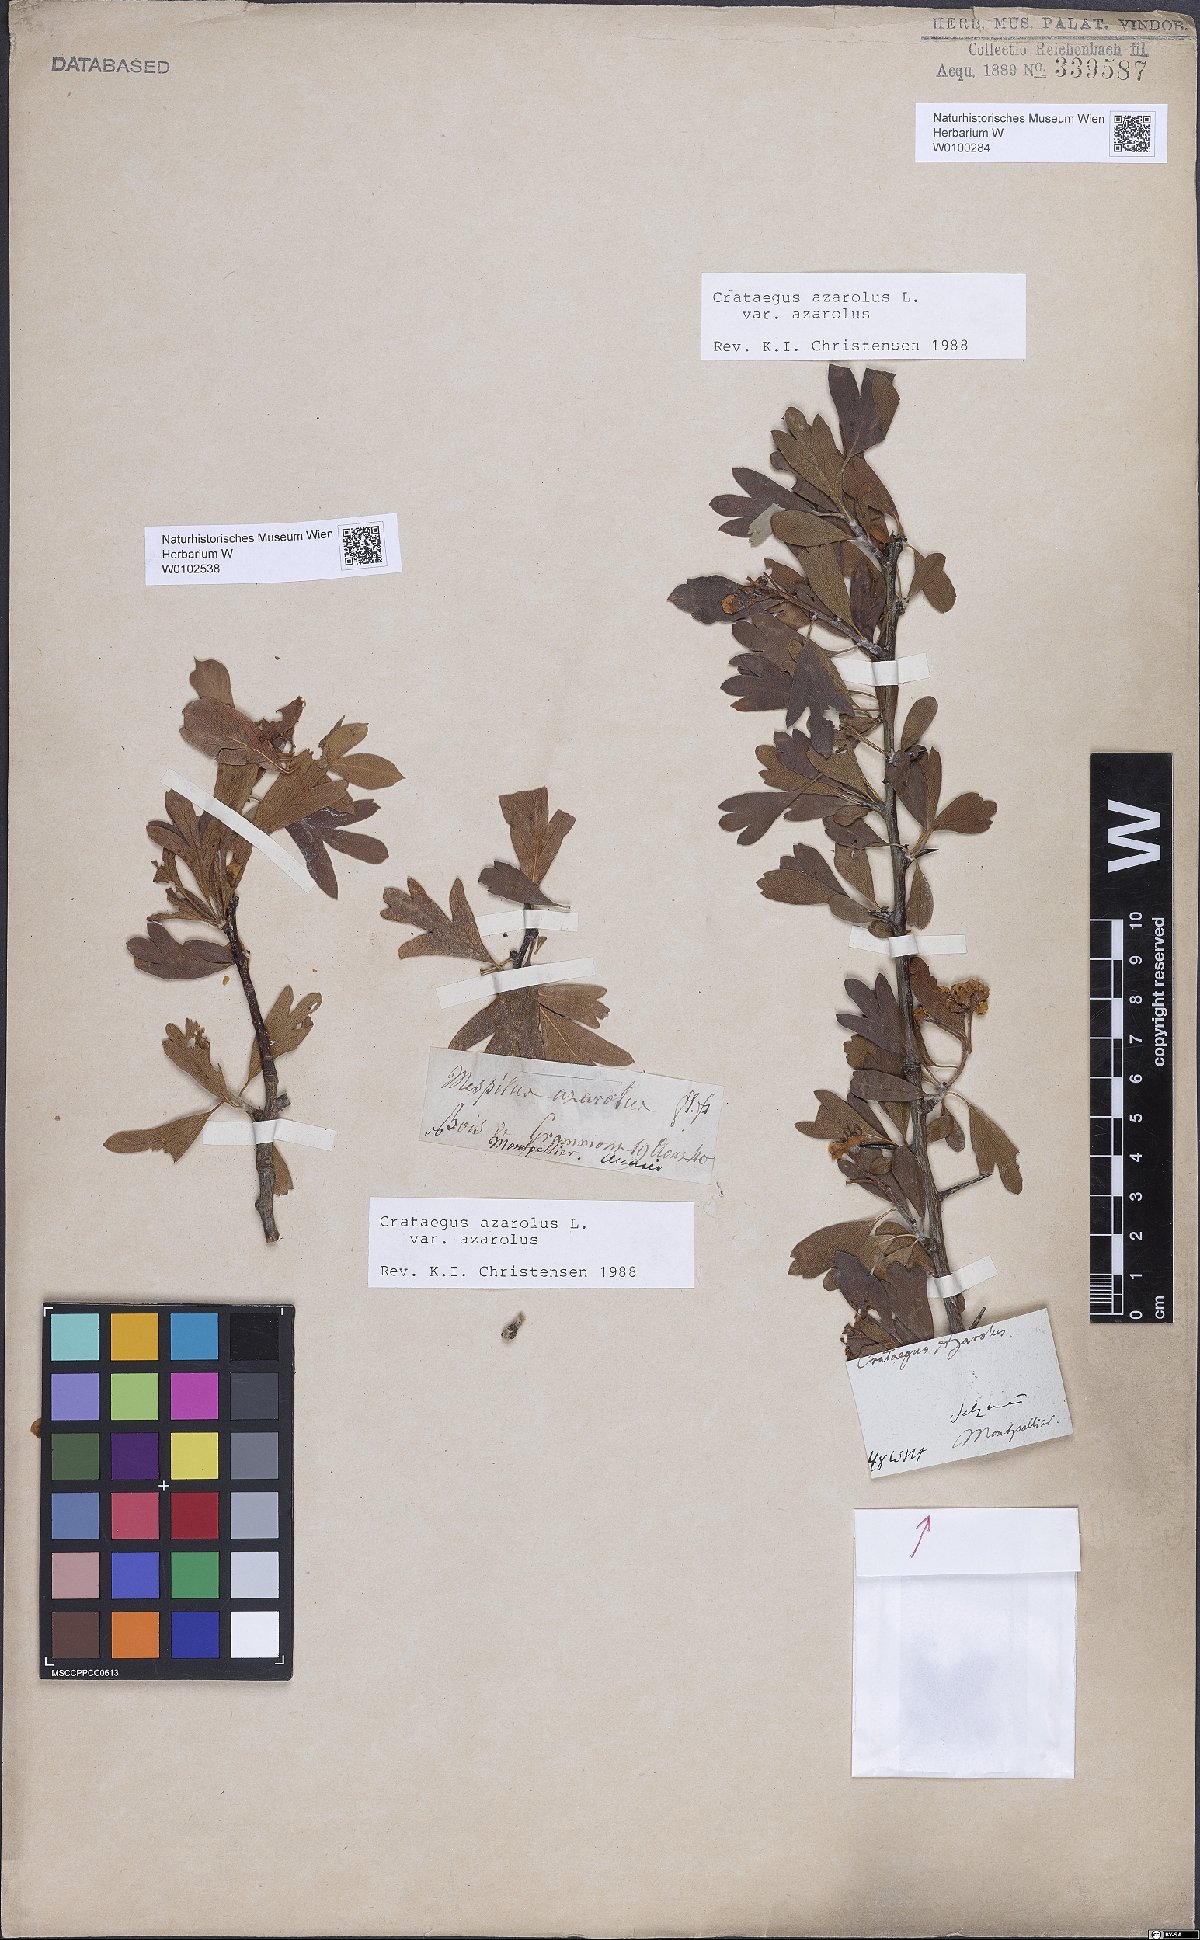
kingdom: Plantae
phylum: Tracheophyta
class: Magnoliopsida
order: Rosales
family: Rosaceae
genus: Crataegus
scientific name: Crataegus azarolus
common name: Azarole
